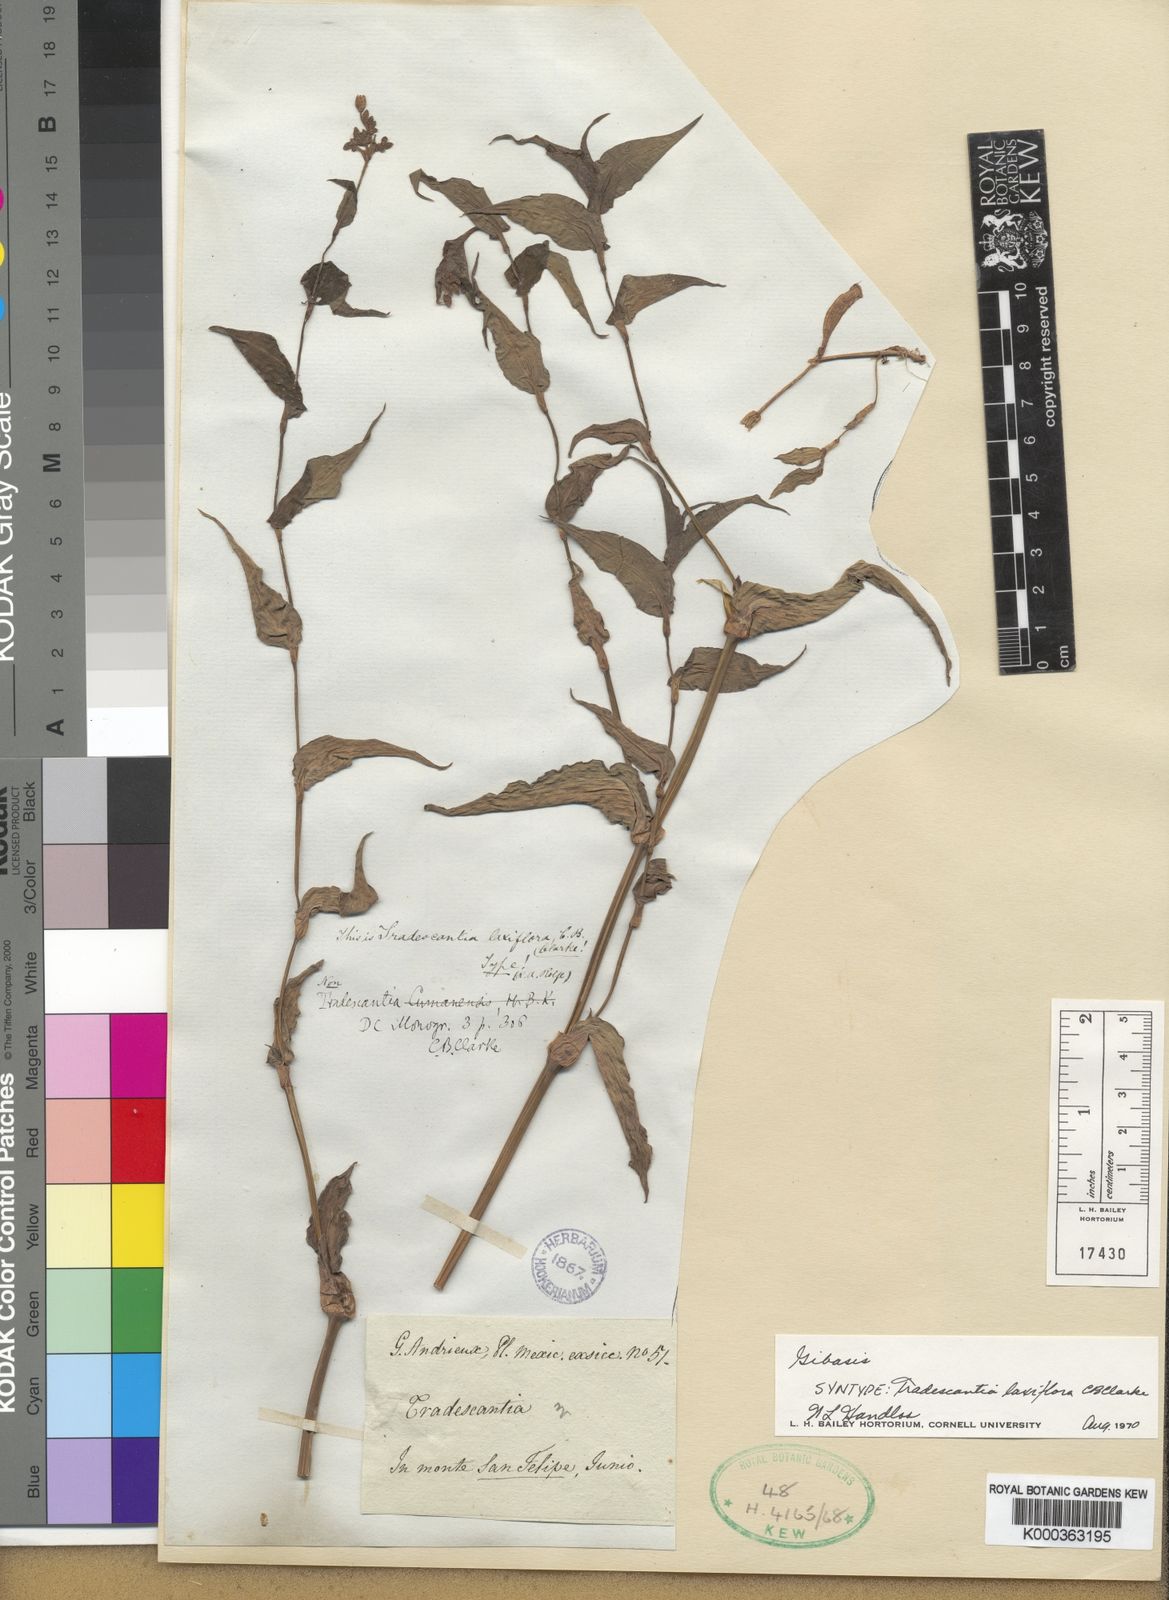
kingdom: Plantae
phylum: Tracheophyta
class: Liliopsida
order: Commelinales
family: Commelinaceae
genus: Thyrsanthemum
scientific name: Thyrsanthemum
